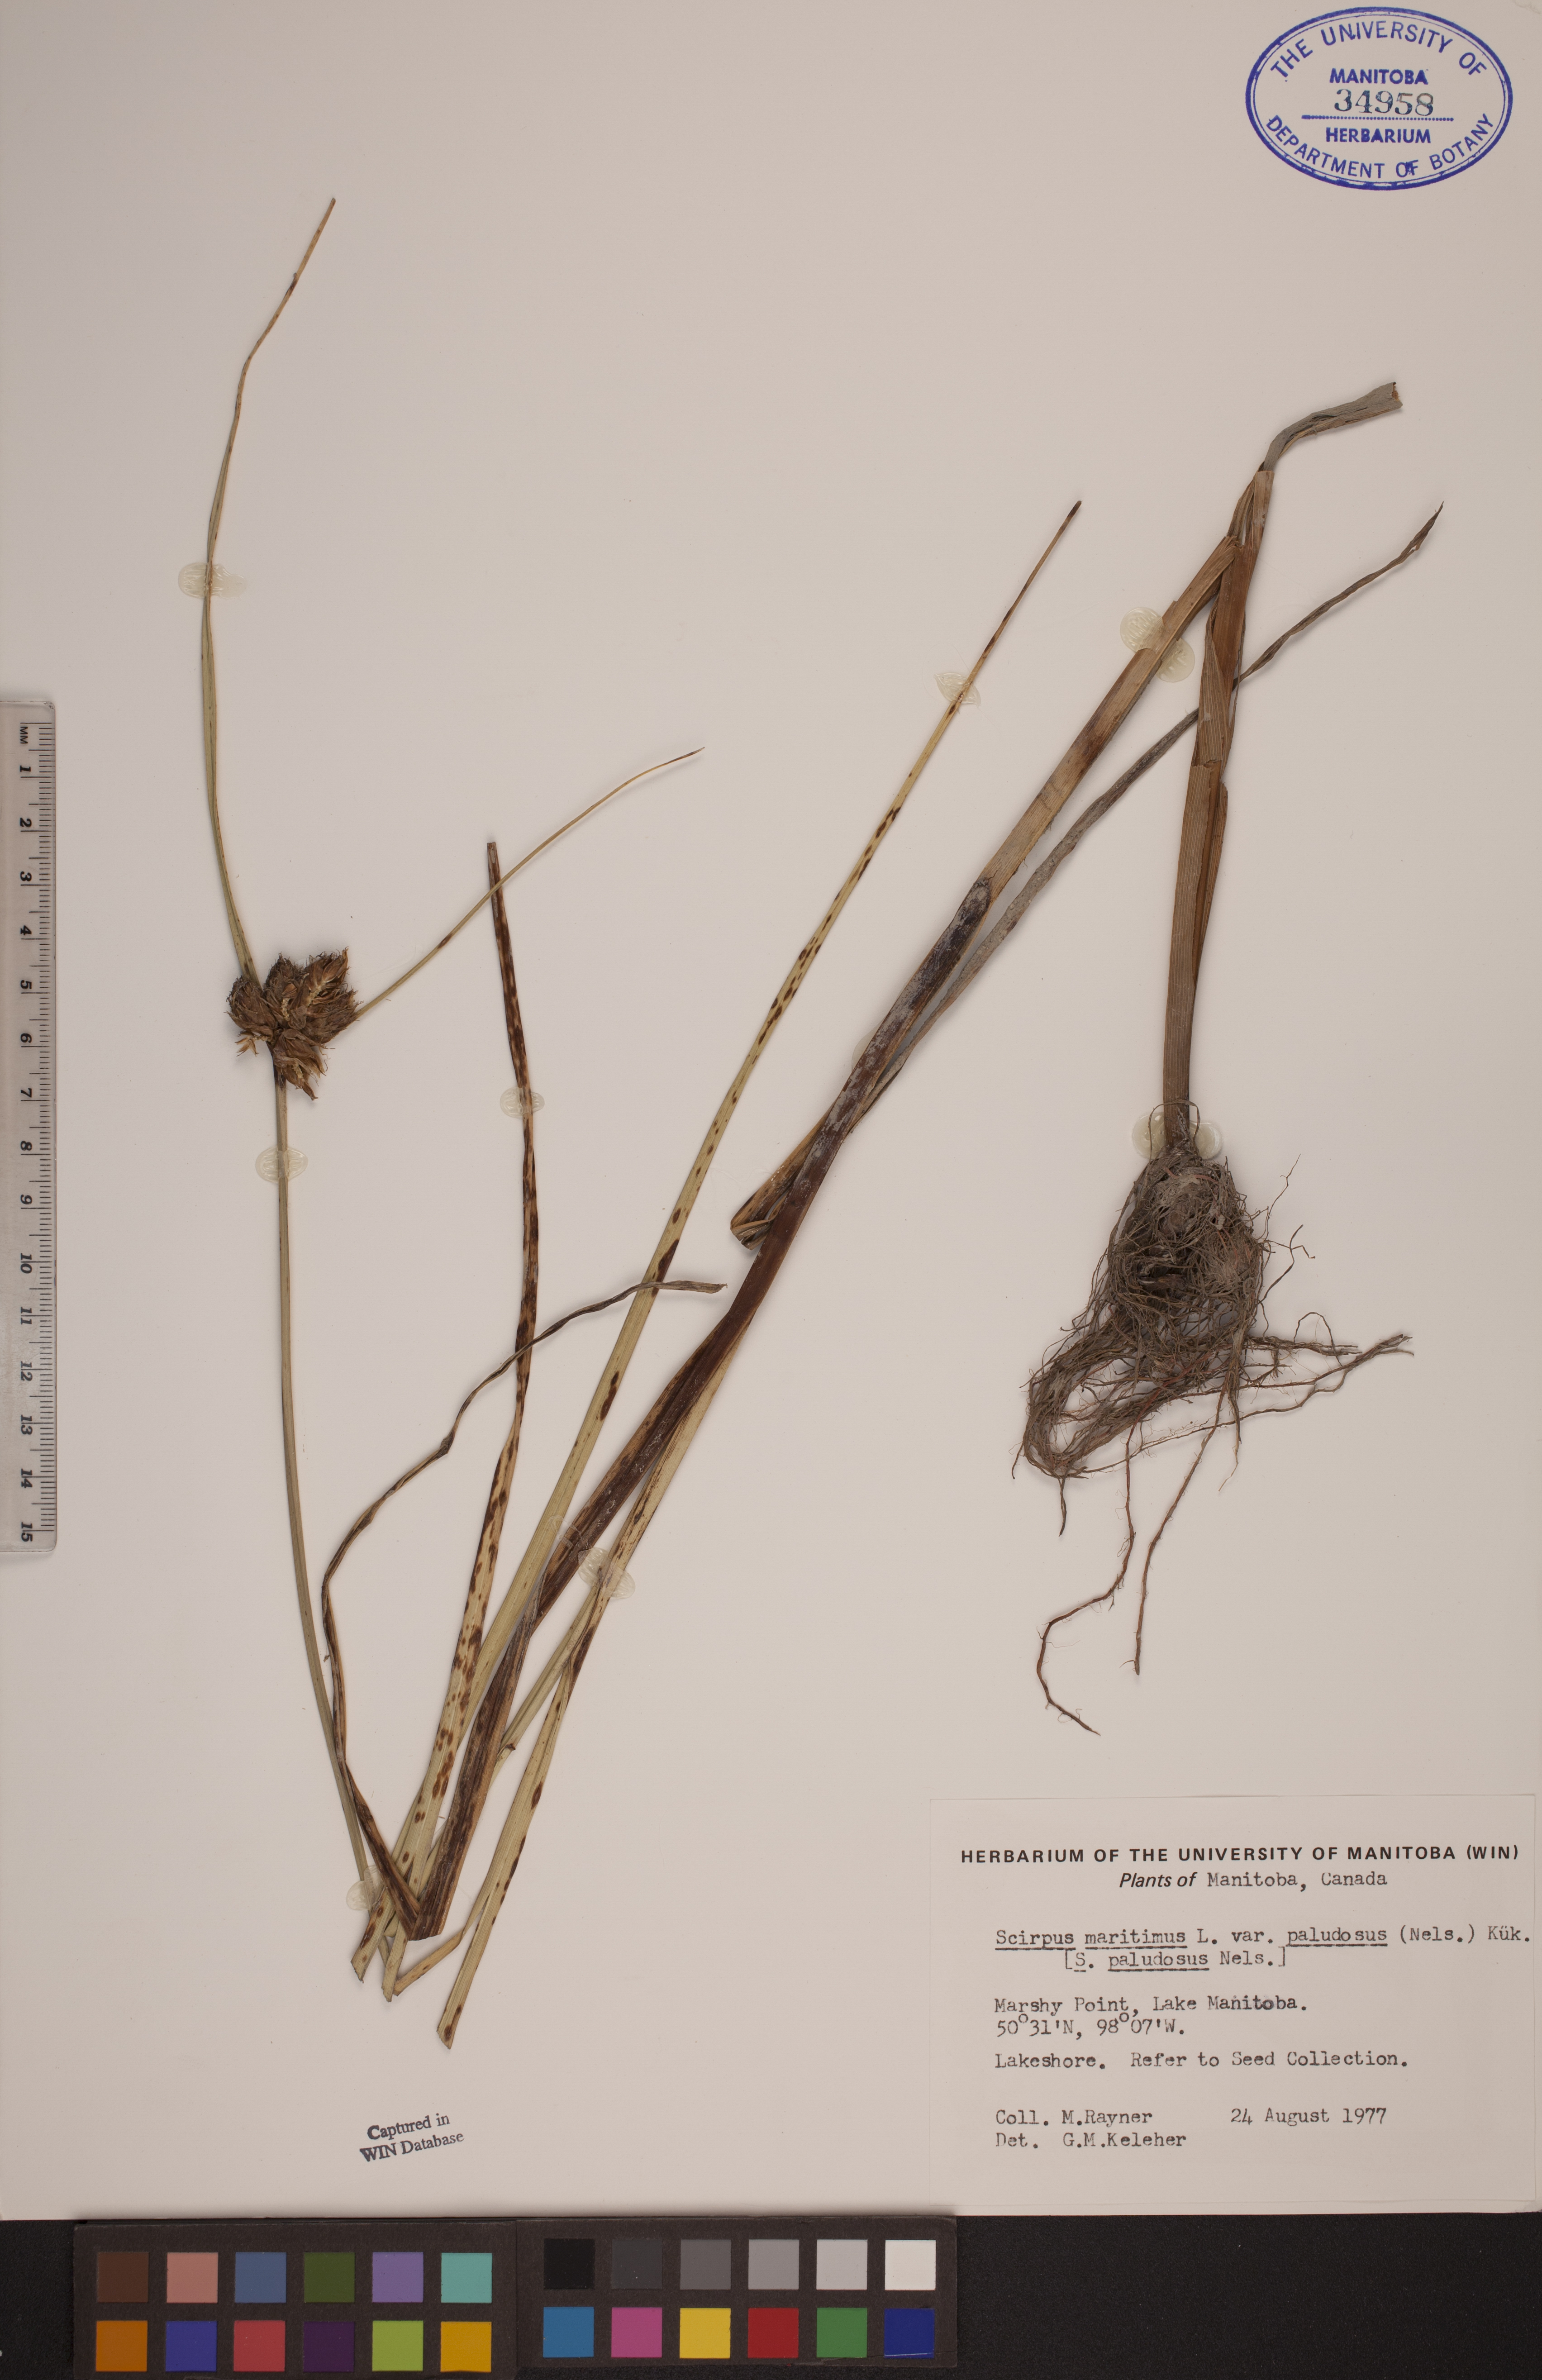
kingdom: Plantae
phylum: Tracheophyta
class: Liliopsida
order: Poales
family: Cyperaceae
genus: Bolboschoenus
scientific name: Bolboschoenus maritimus
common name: Sea club-rush
